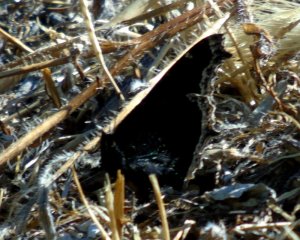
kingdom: Animalia
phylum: Arthropoda
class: Insecta
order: Lepidoptera
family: Nymphalidae
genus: Nymphalis
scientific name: Nymphalis antiopa
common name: Mourning Cloak
